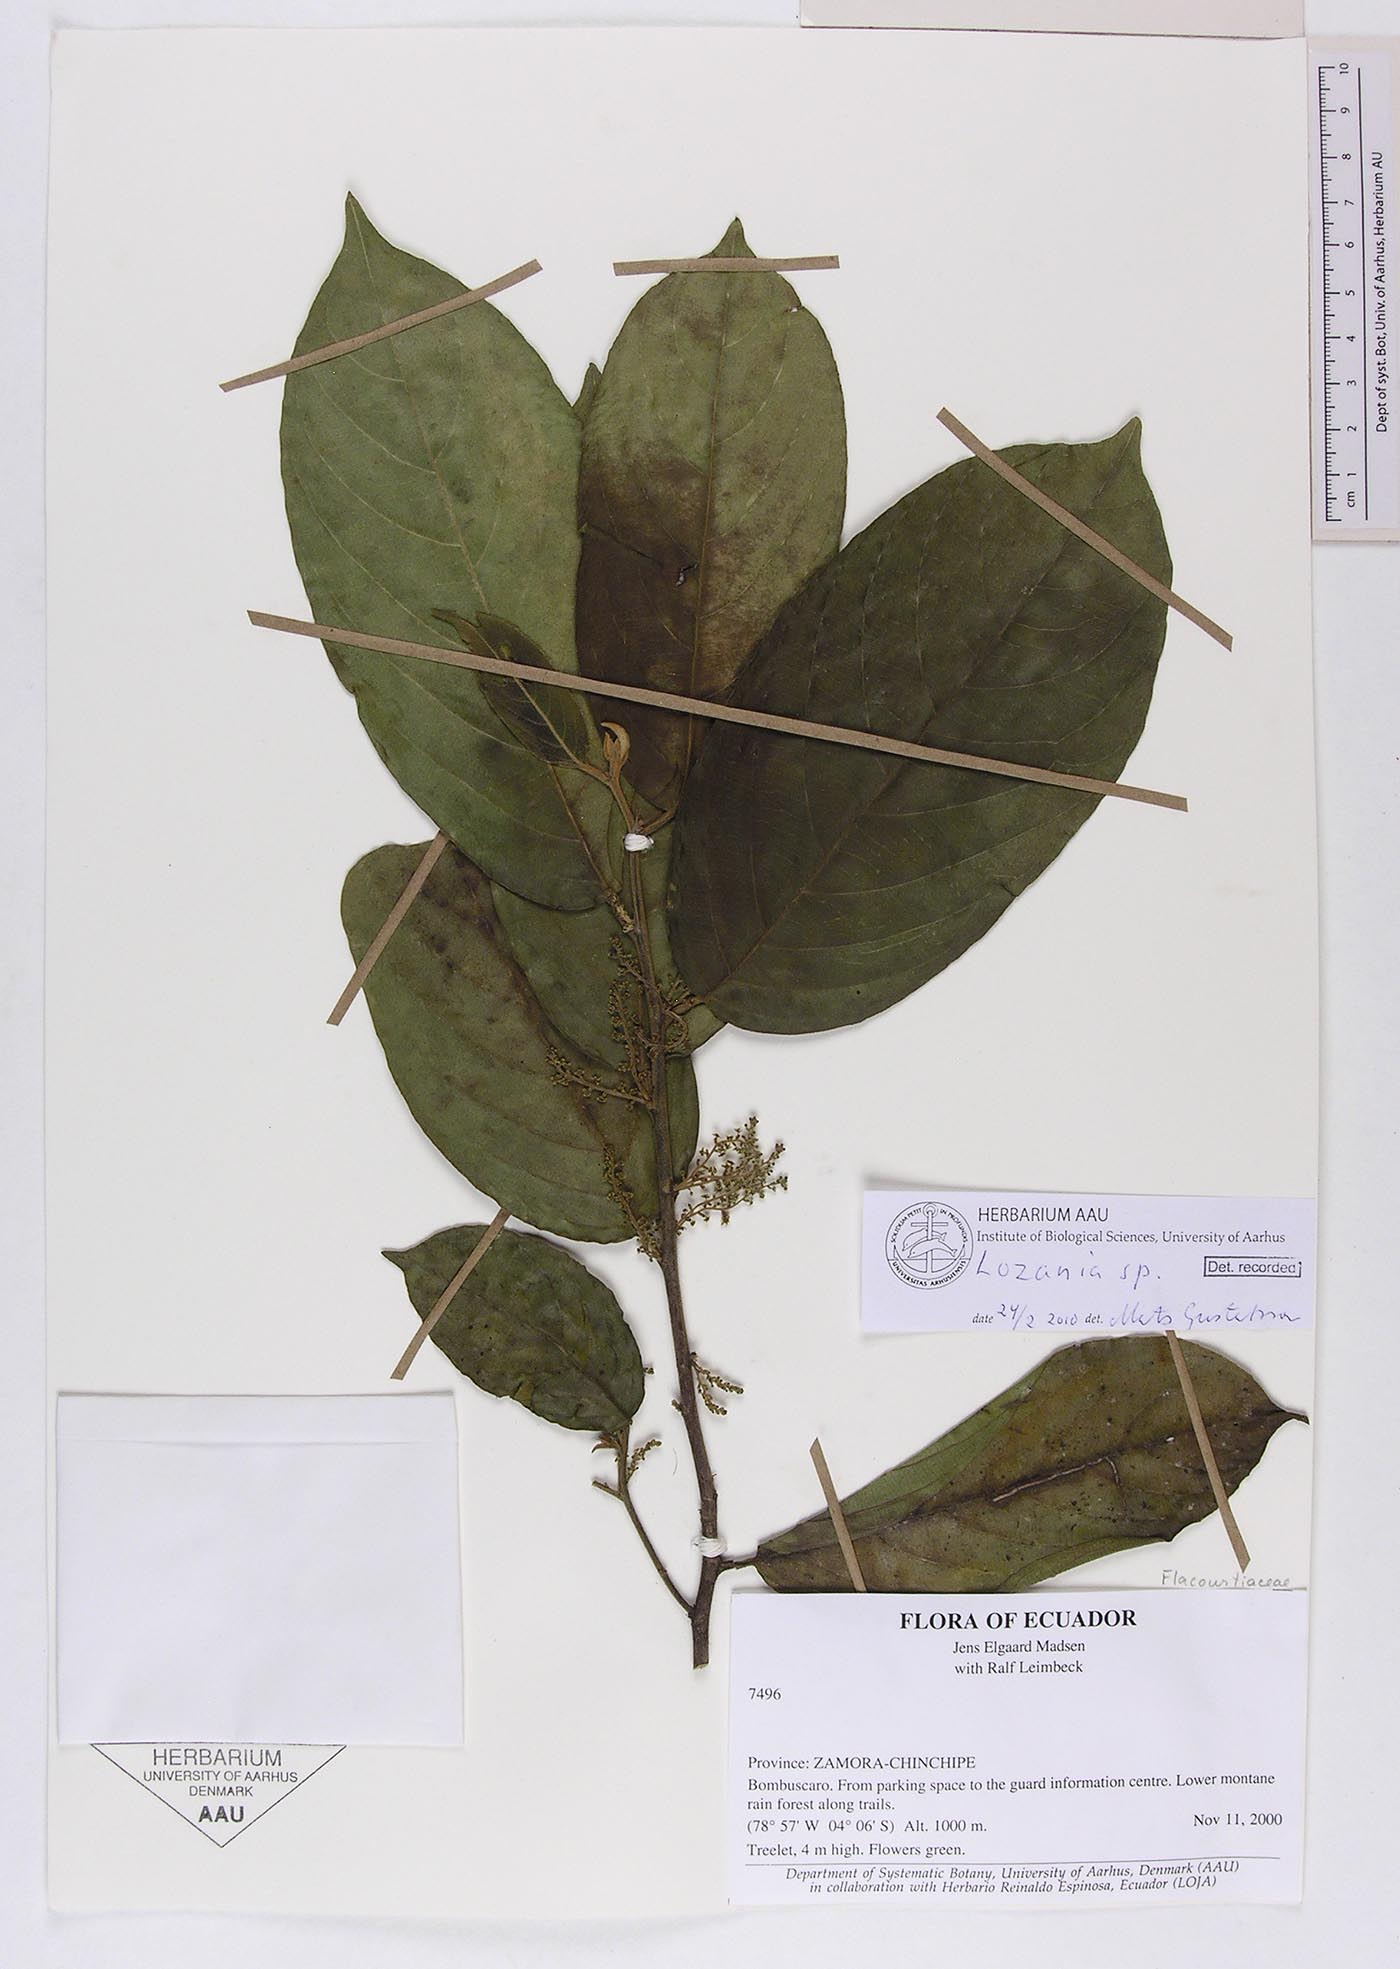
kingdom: Plantae
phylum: Tracheophyta
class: Magnoliopsida
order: Malpighiales
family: Lacistemataceae
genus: Lozania
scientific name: Lozania
